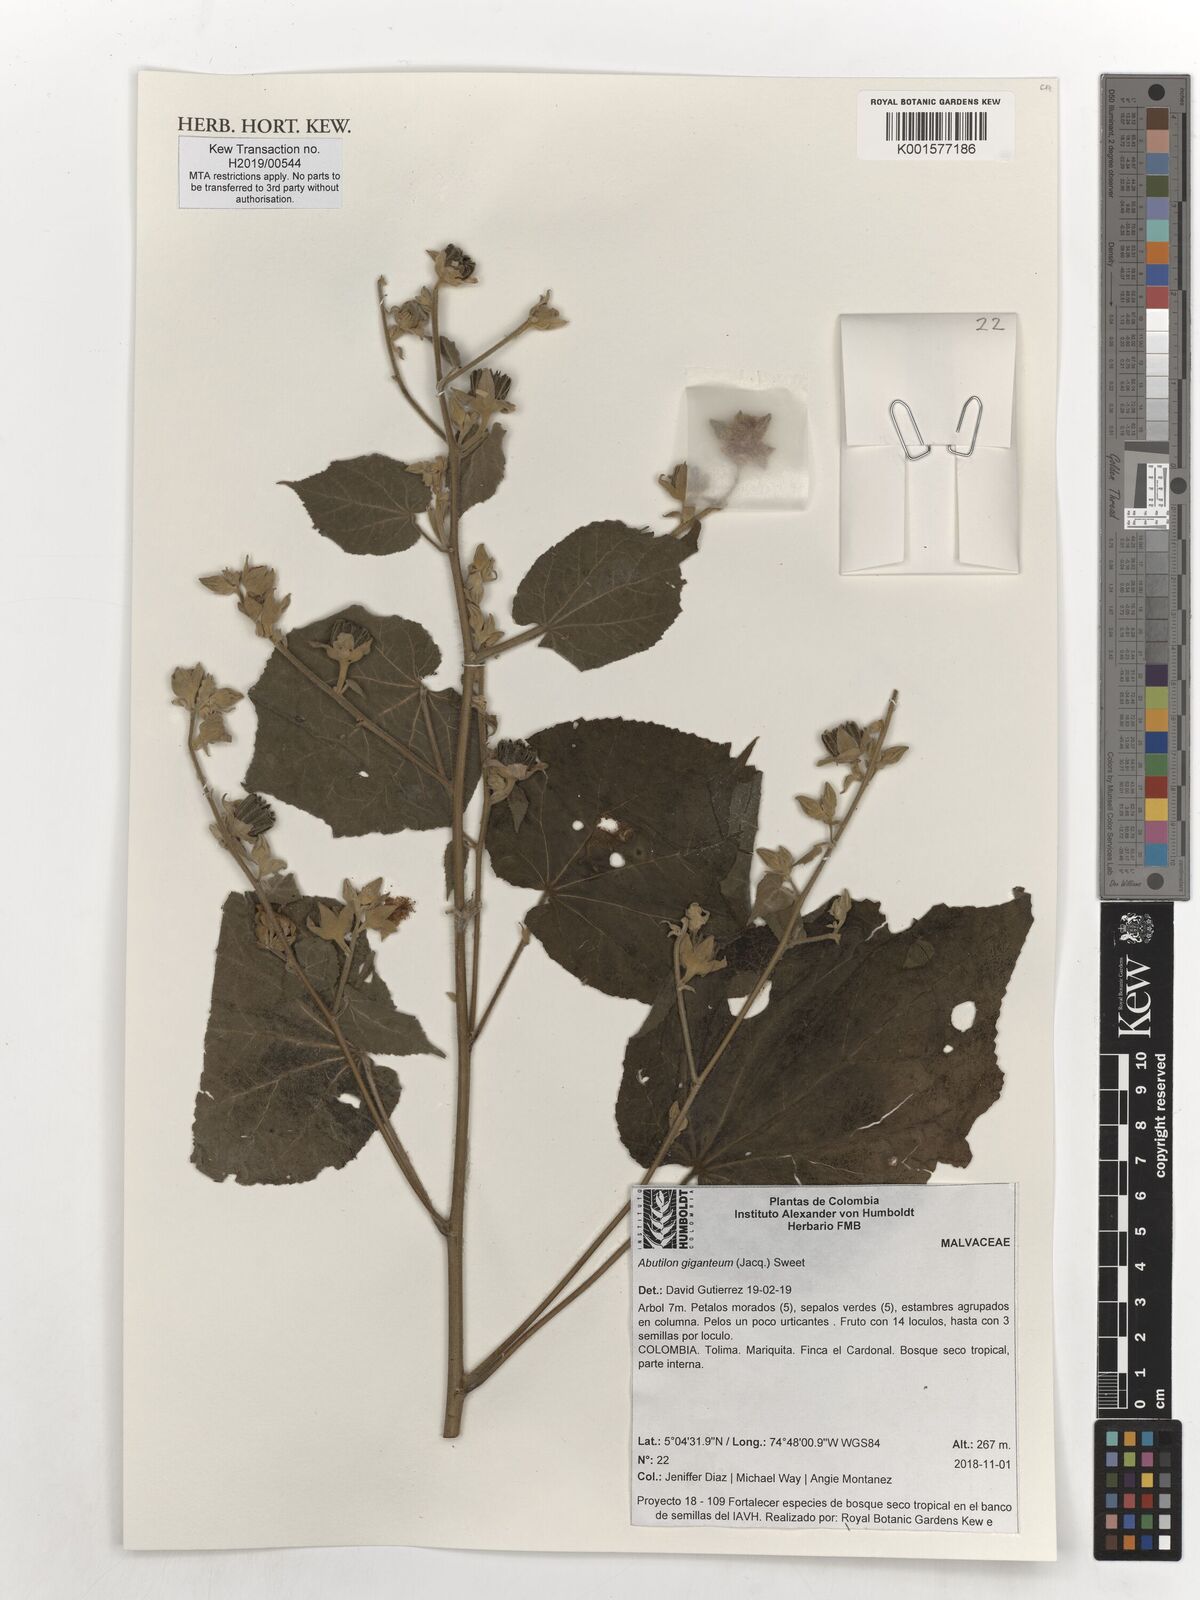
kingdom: Plantae
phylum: Tracheophyta
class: Magnoliopsida
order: Malvales
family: Malvaceae
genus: Abutilon
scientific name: Abutilon giganteum
